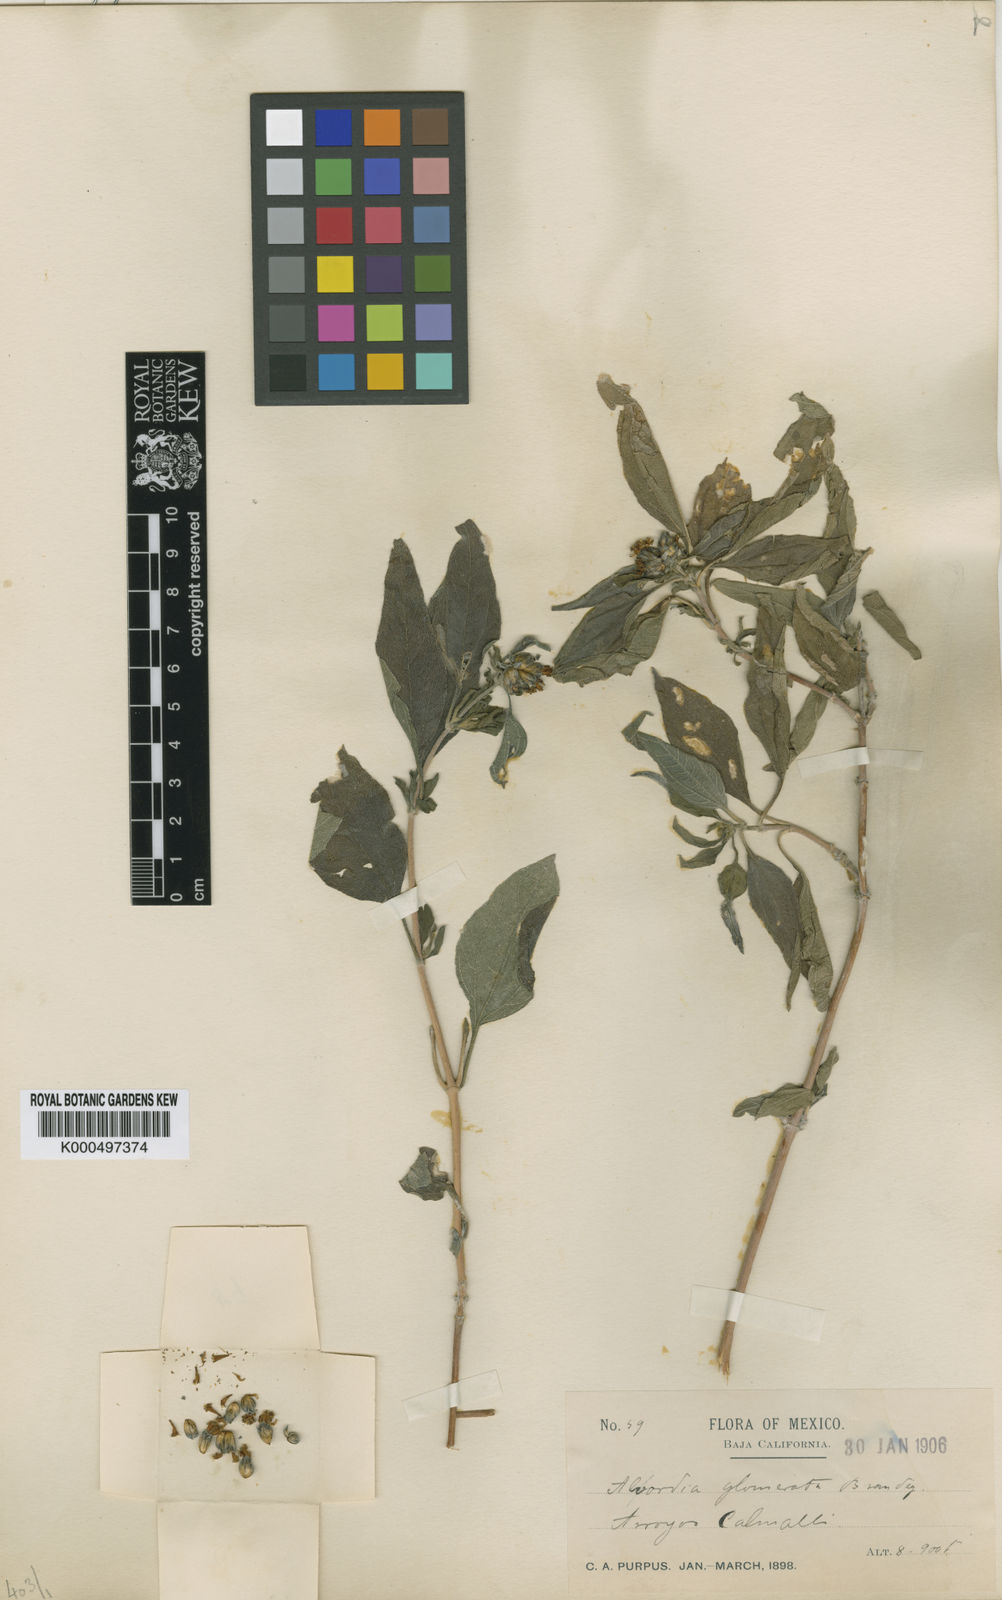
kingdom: Plantae
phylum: Tracheophyta
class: Magnoliopsida
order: Asterales
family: Asteraceae
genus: Aldama
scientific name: Aldama glomerata
